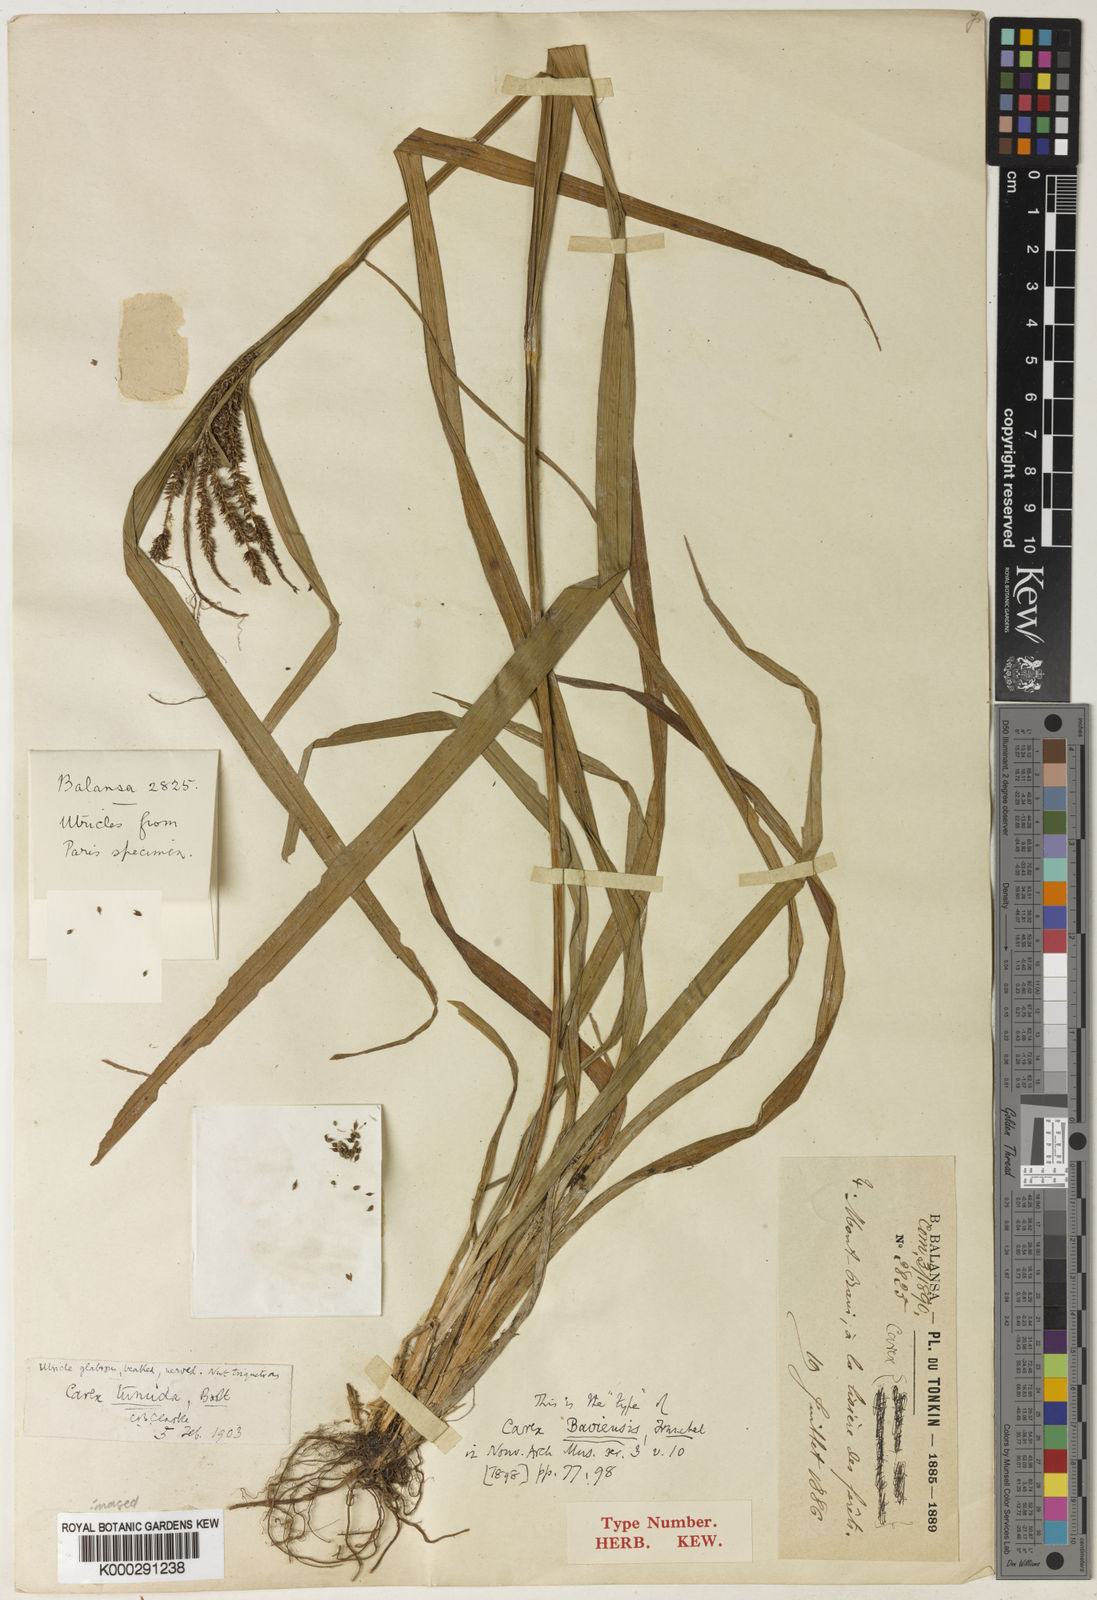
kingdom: Plantae
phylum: Tracheophyta
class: Liliopsida
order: Poales
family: Cyperaceae
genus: Carex
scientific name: Carex japonica
